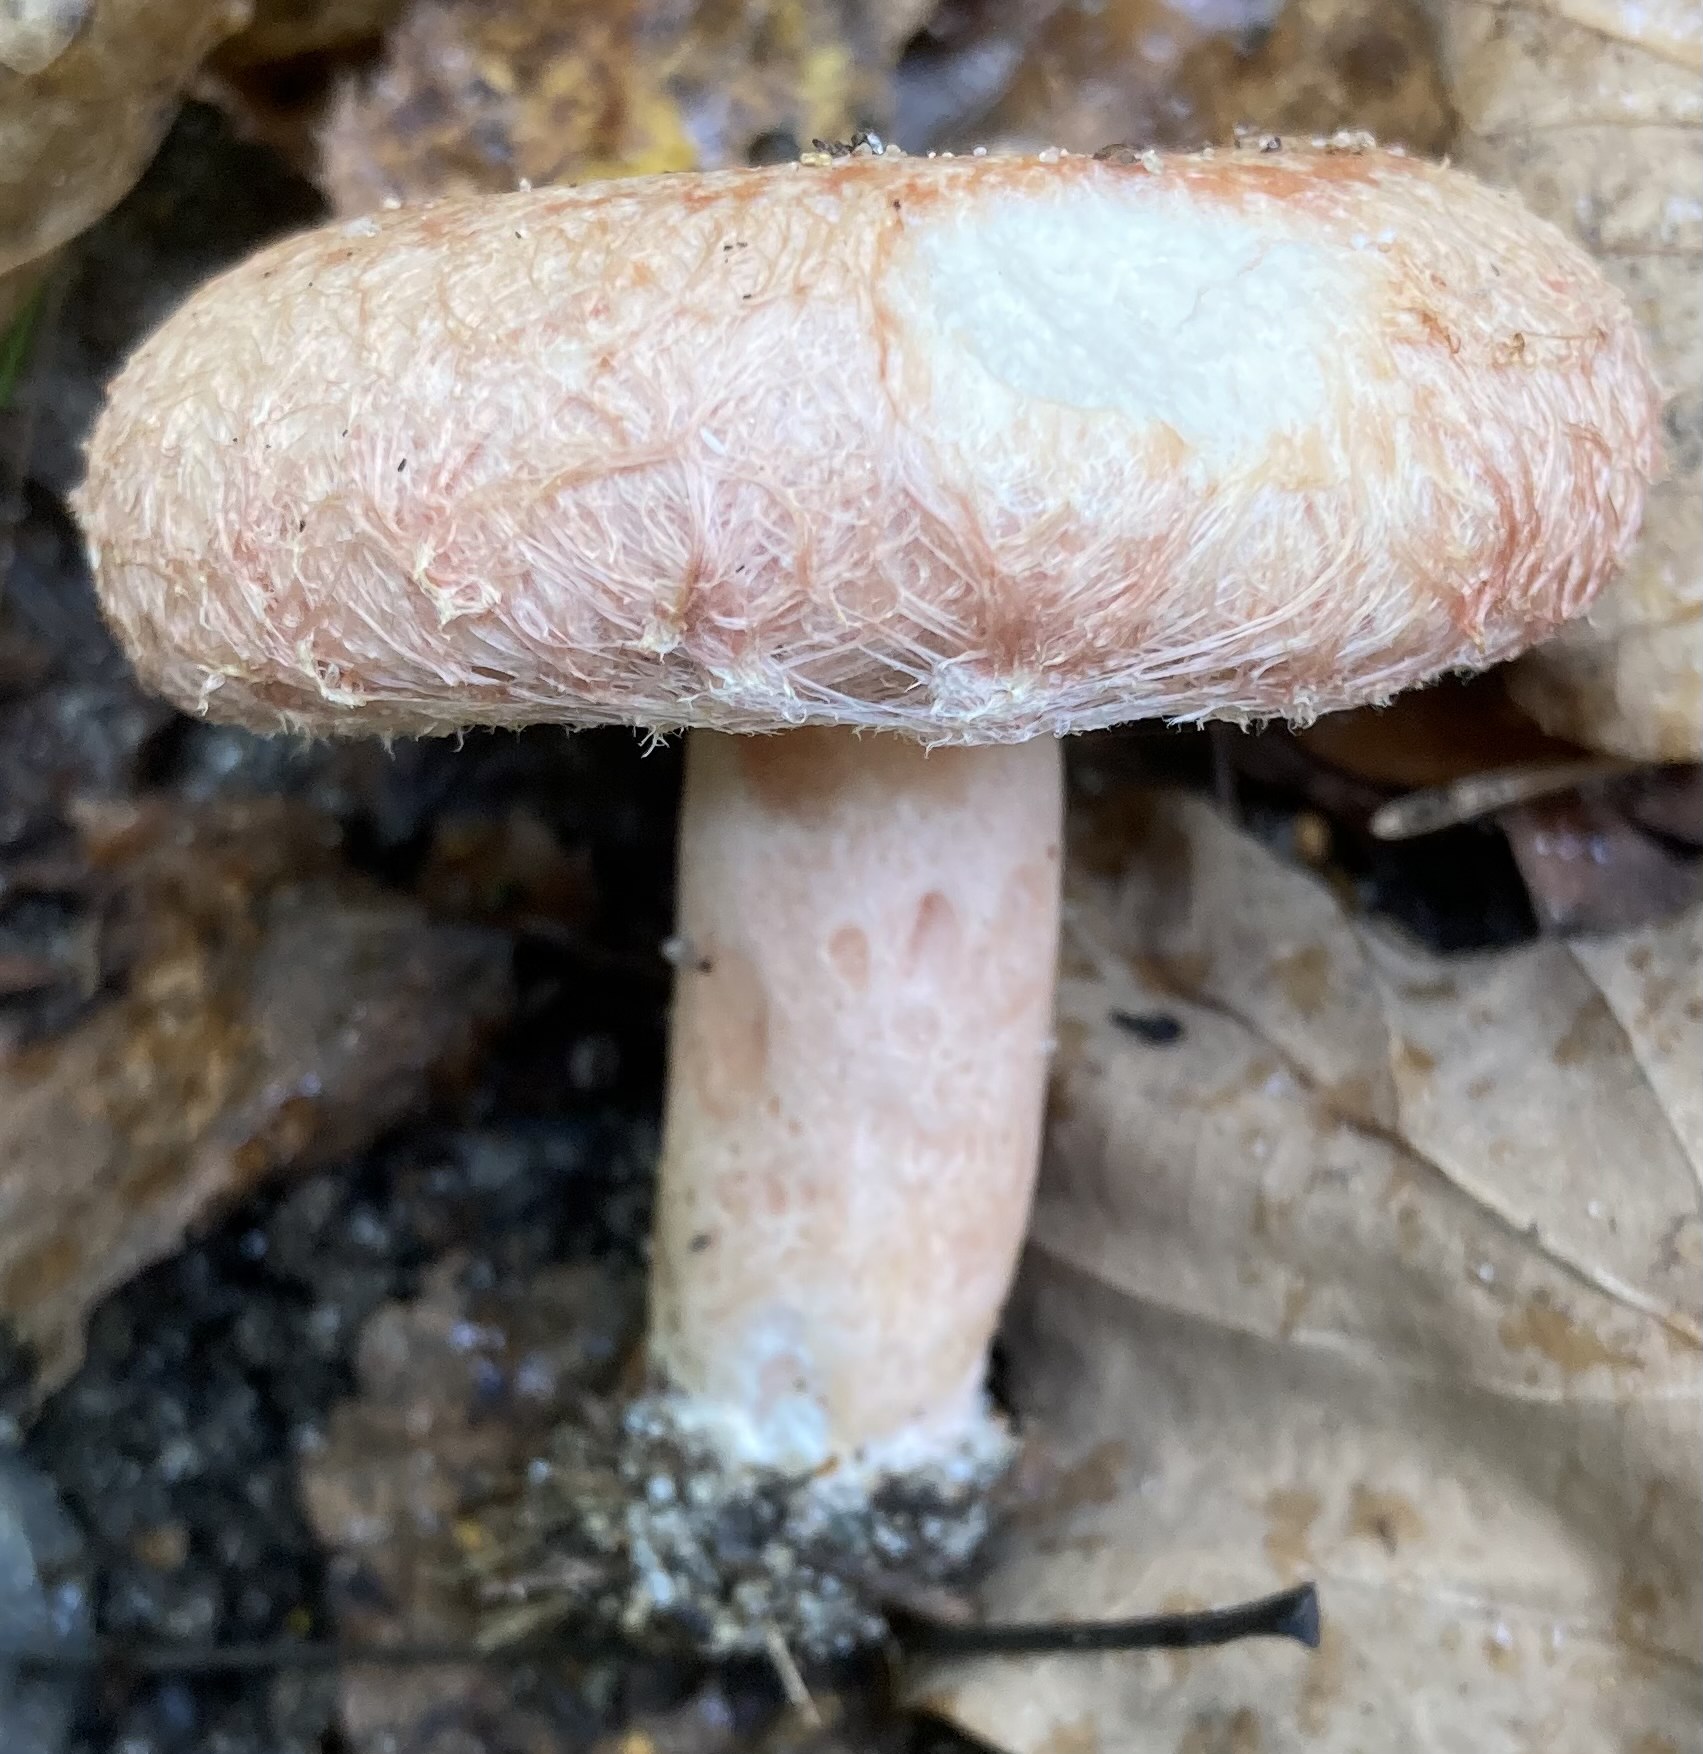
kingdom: Fungi
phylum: Basidiomycota
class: Agaricomycetes
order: Russulales
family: Russulaceae
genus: Lactarius
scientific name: Lactarius torminosus
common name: skægget mælkehat
